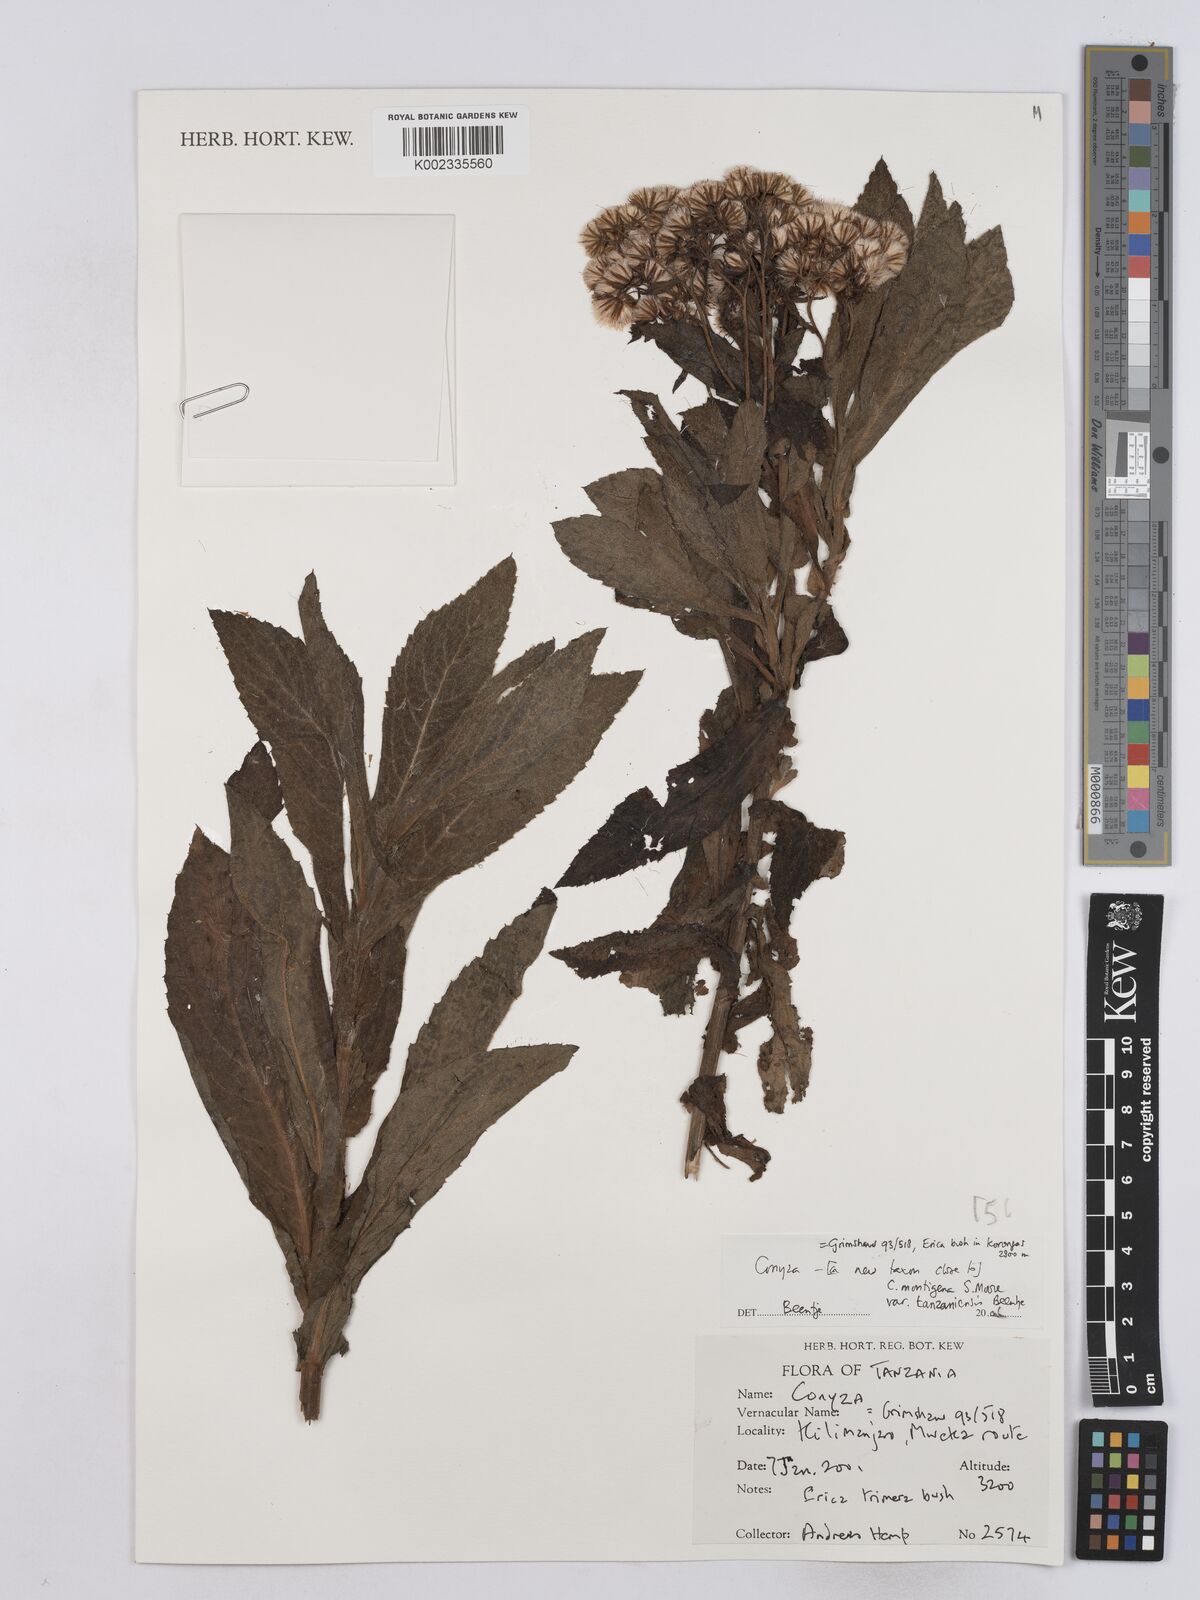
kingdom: Plantae
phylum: Tracheophyta
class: Magnoliopsida
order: Asterales
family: Asteraceae
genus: Conyza
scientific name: Conyza montigena
